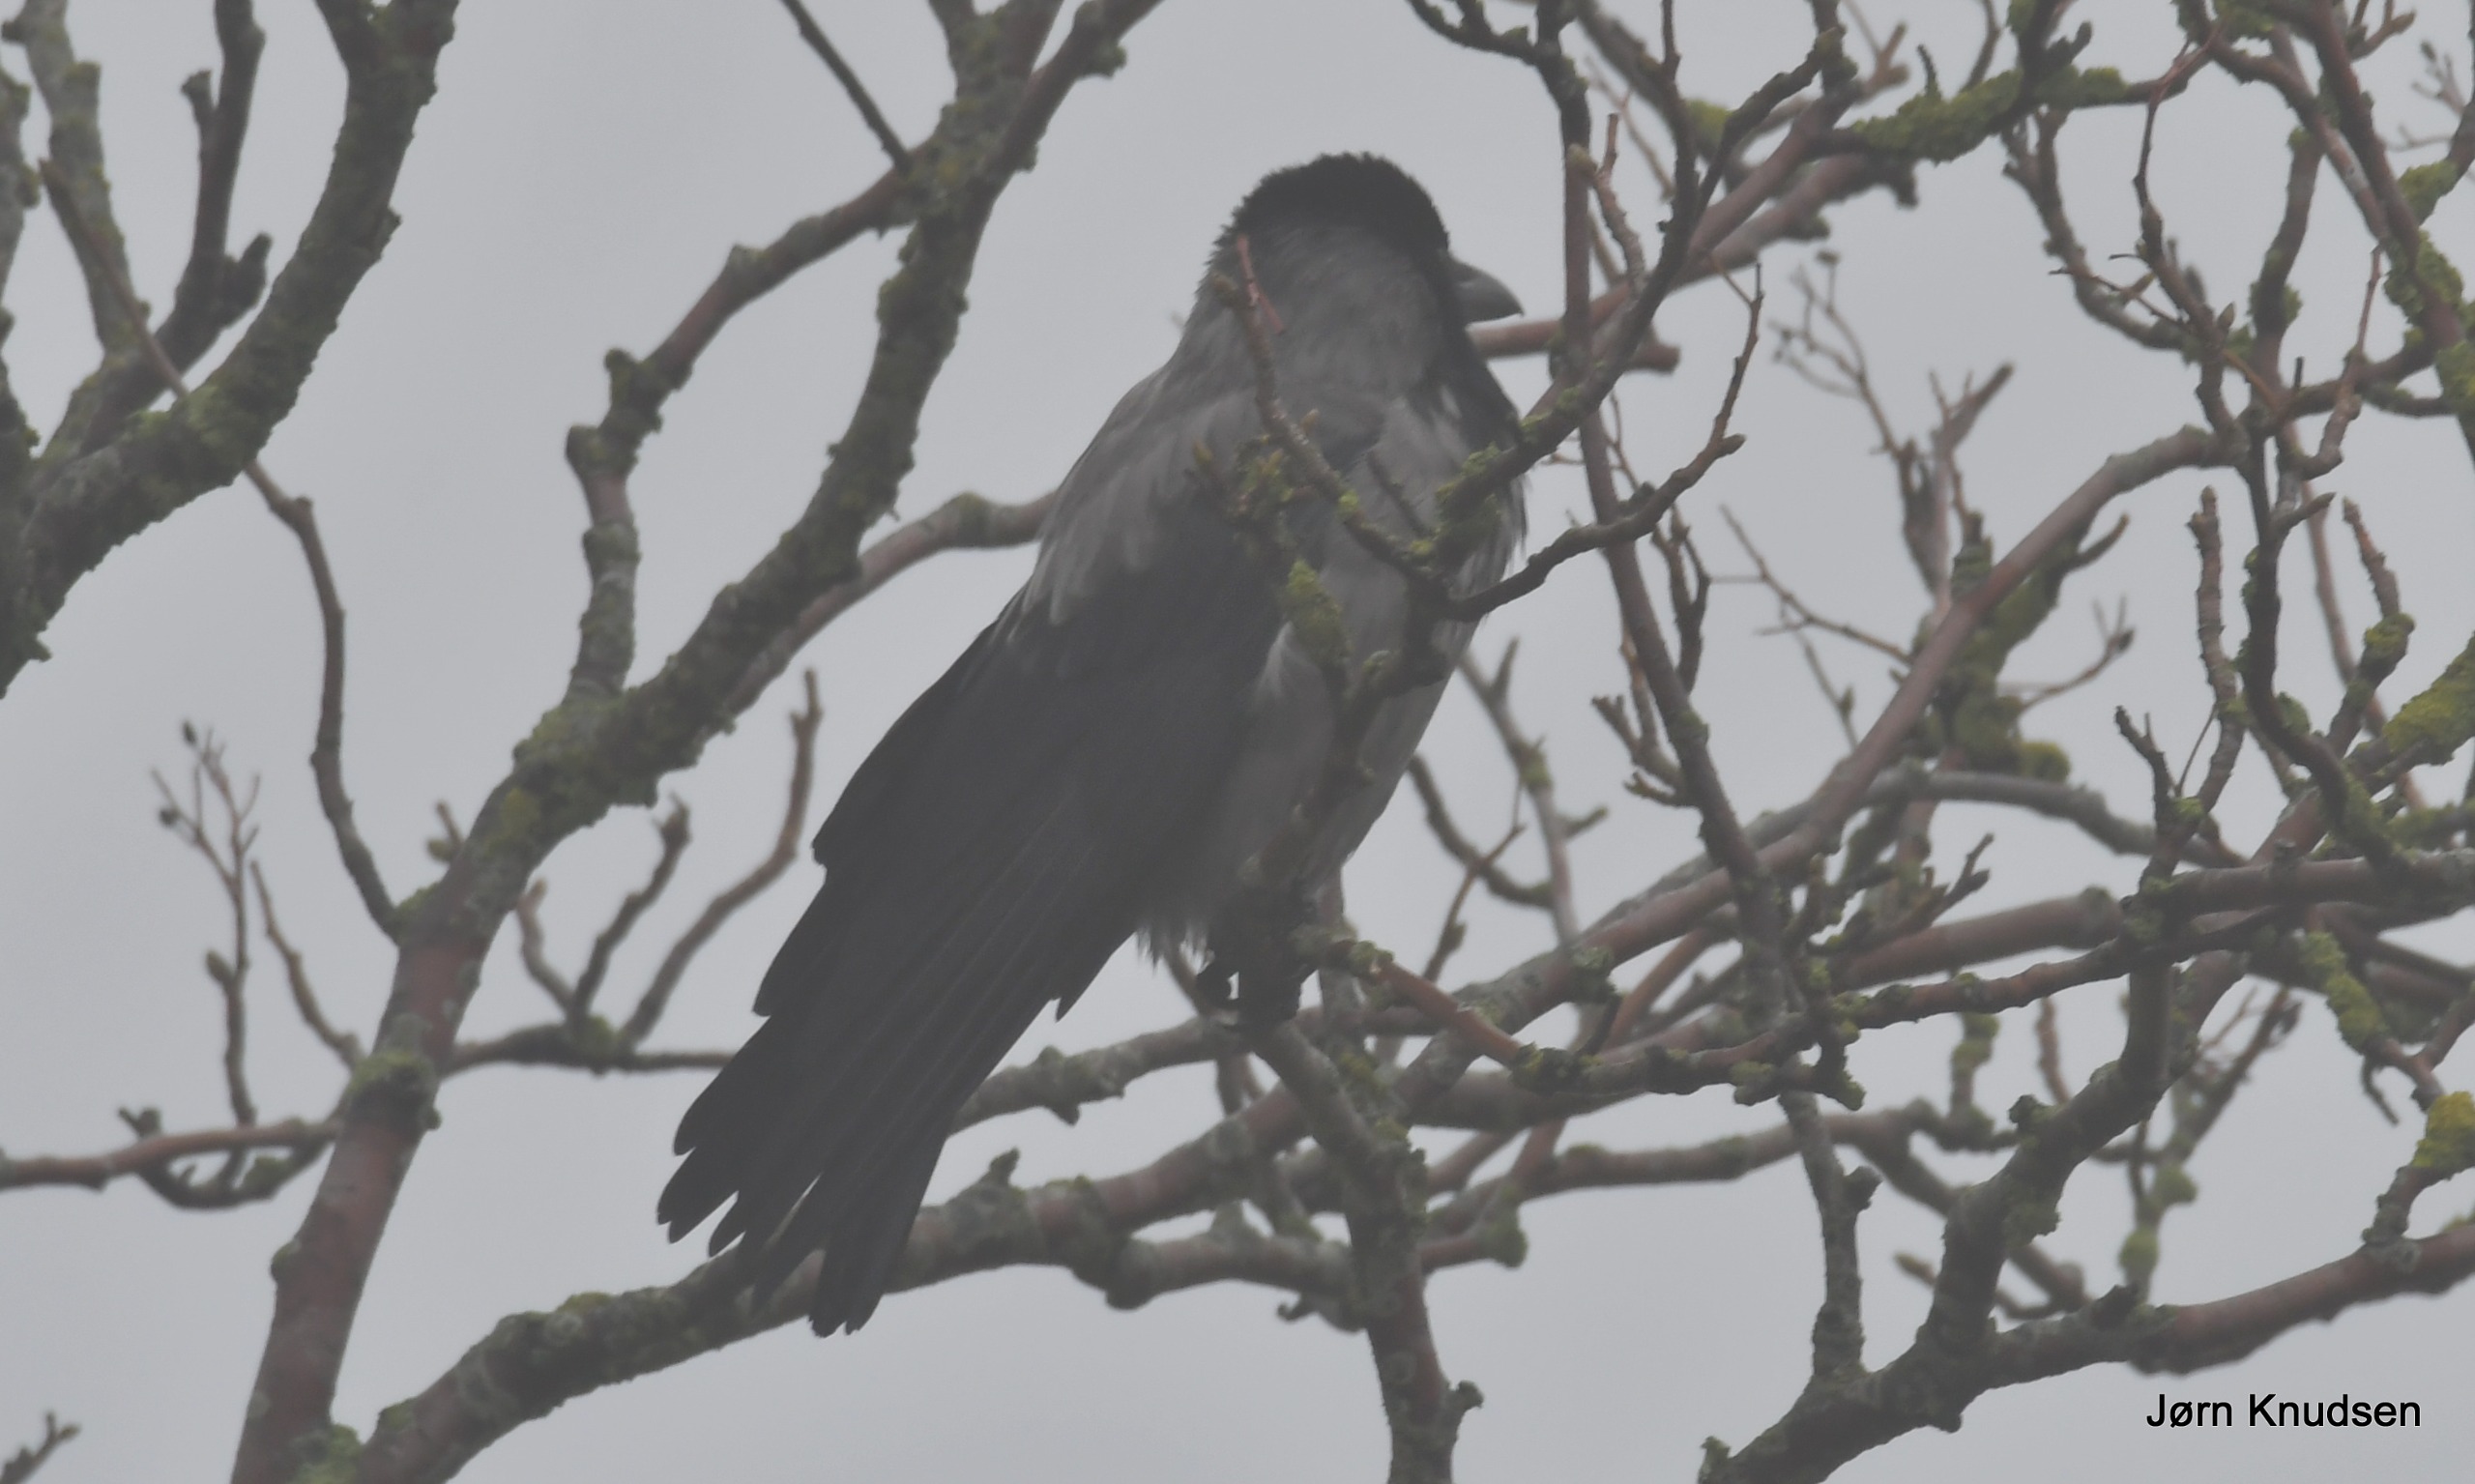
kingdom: Animalia
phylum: Chordata
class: Aves
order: Passeriformes
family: Corvidae
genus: Corvus
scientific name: Corvus cornix
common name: Gråkrage
